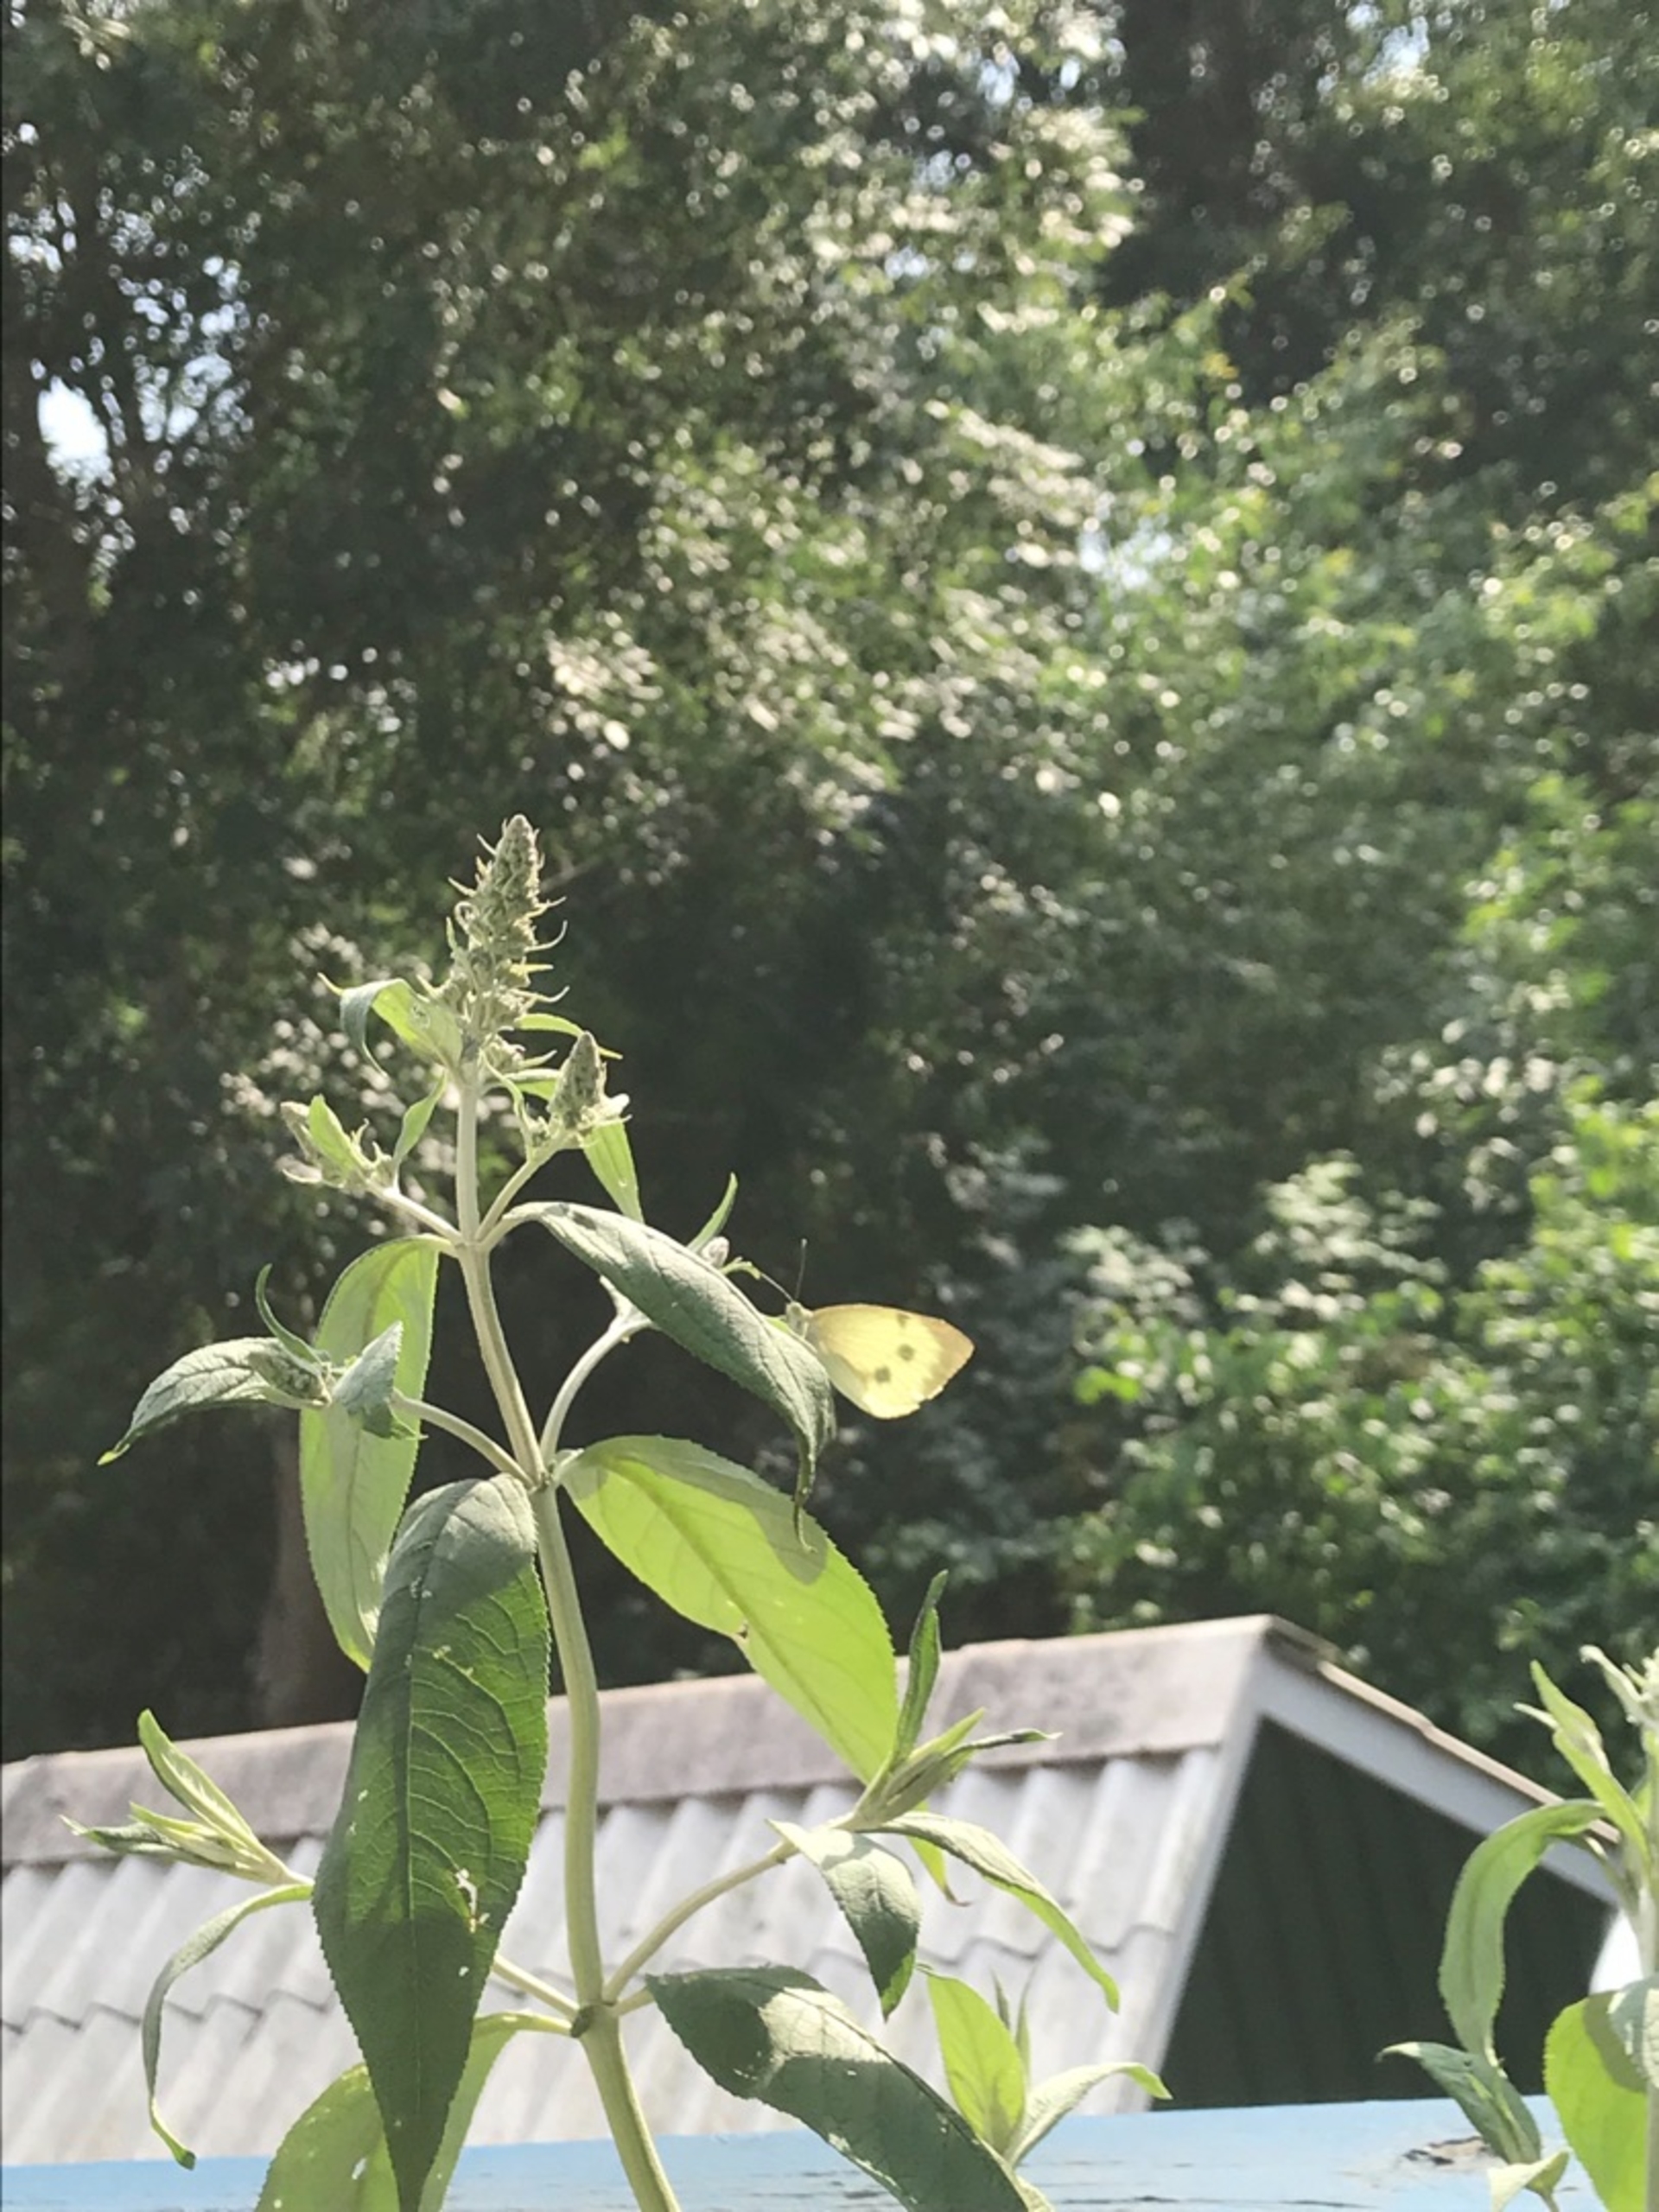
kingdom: Animalia
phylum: Arthropoda
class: Insecta
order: Lepidoptera
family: Pieridae
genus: Pieris
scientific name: Pieris brassicae
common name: Stor kålsommerfugl
